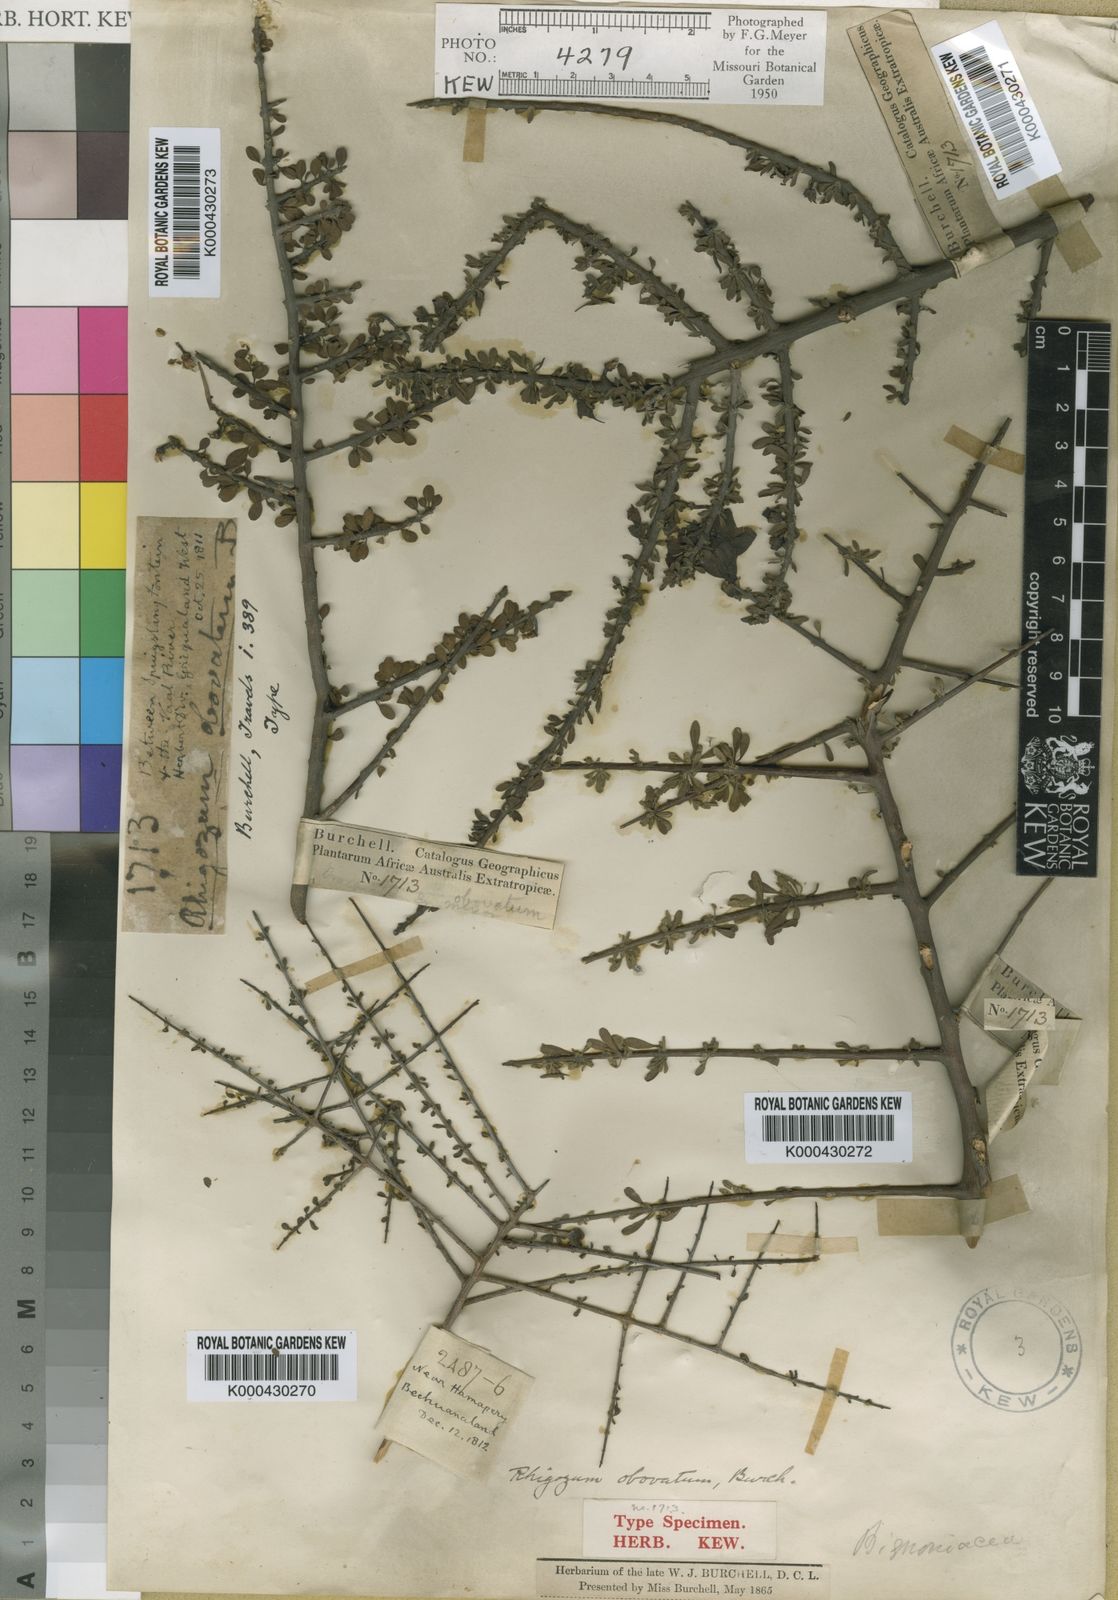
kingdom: Plantae
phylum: Tracheophyta
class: Magnoliopsida
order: Lamiales
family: Bignoniaceae
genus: Rhigozum
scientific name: Rhigozum obovatum
